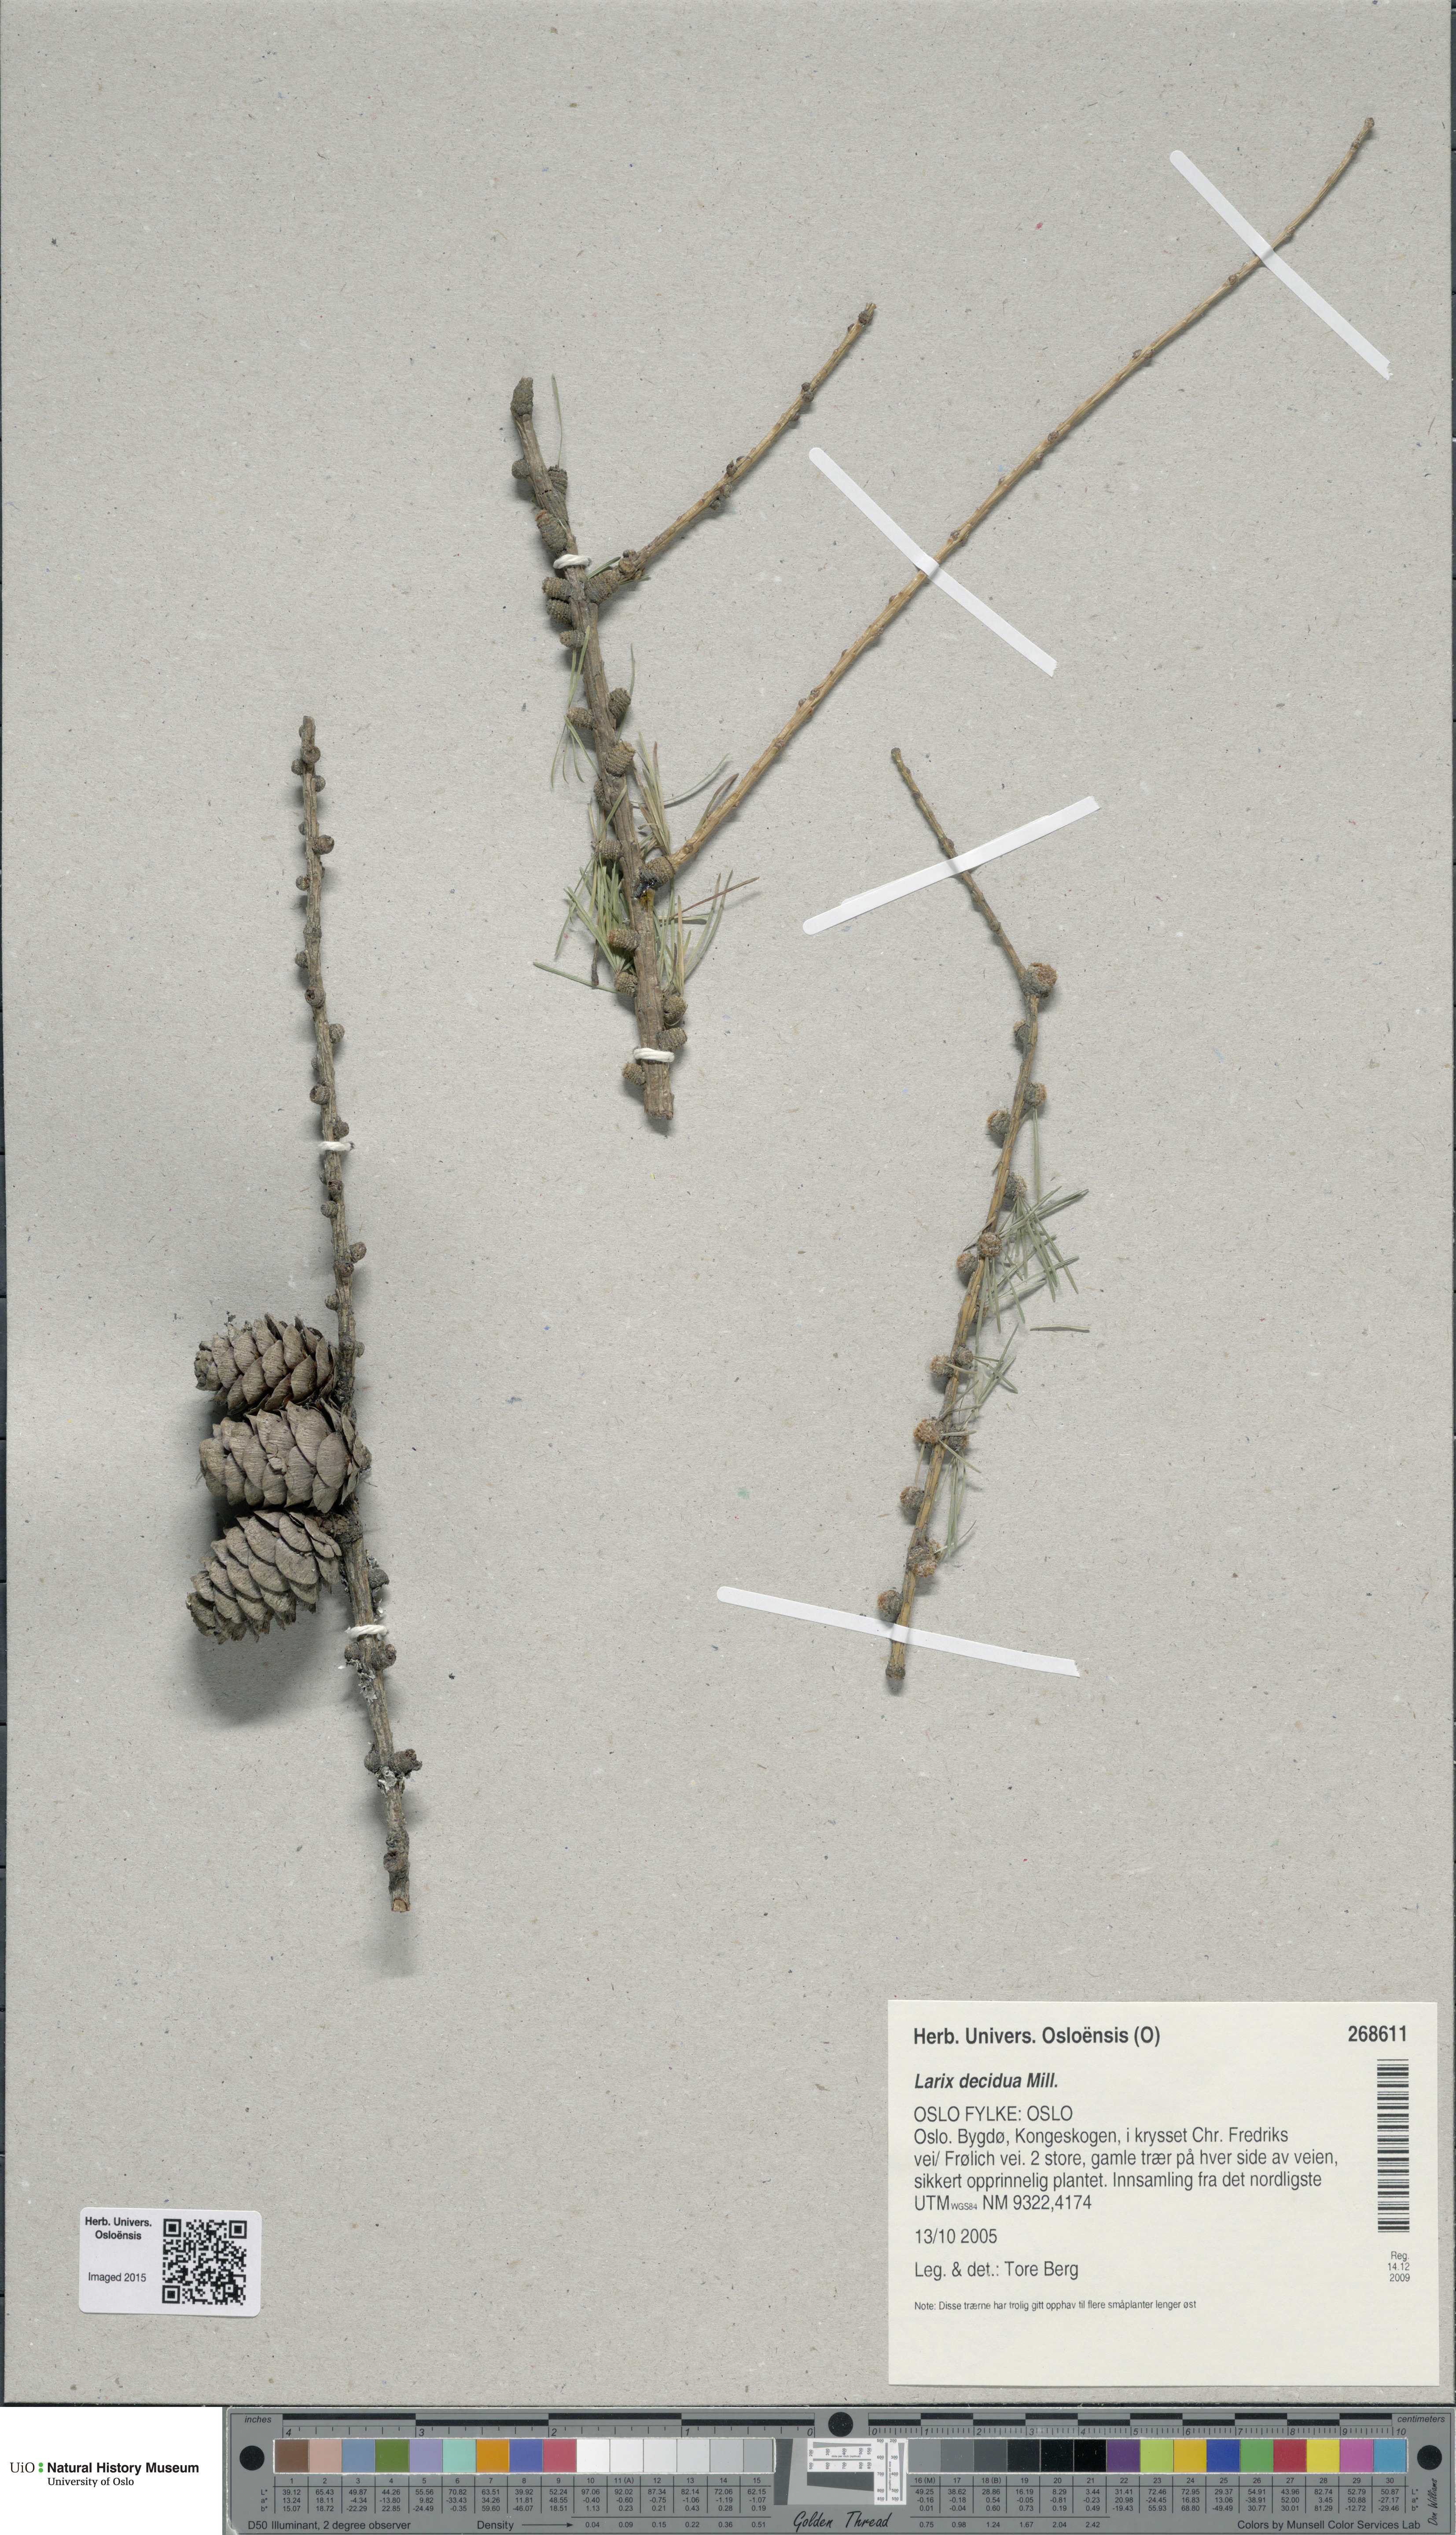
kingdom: Plantae
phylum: Tracheophyta
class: Pinopsida
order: Pinales
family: Pinaceae
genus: Larix
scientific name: Larix decidua
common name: European larch
